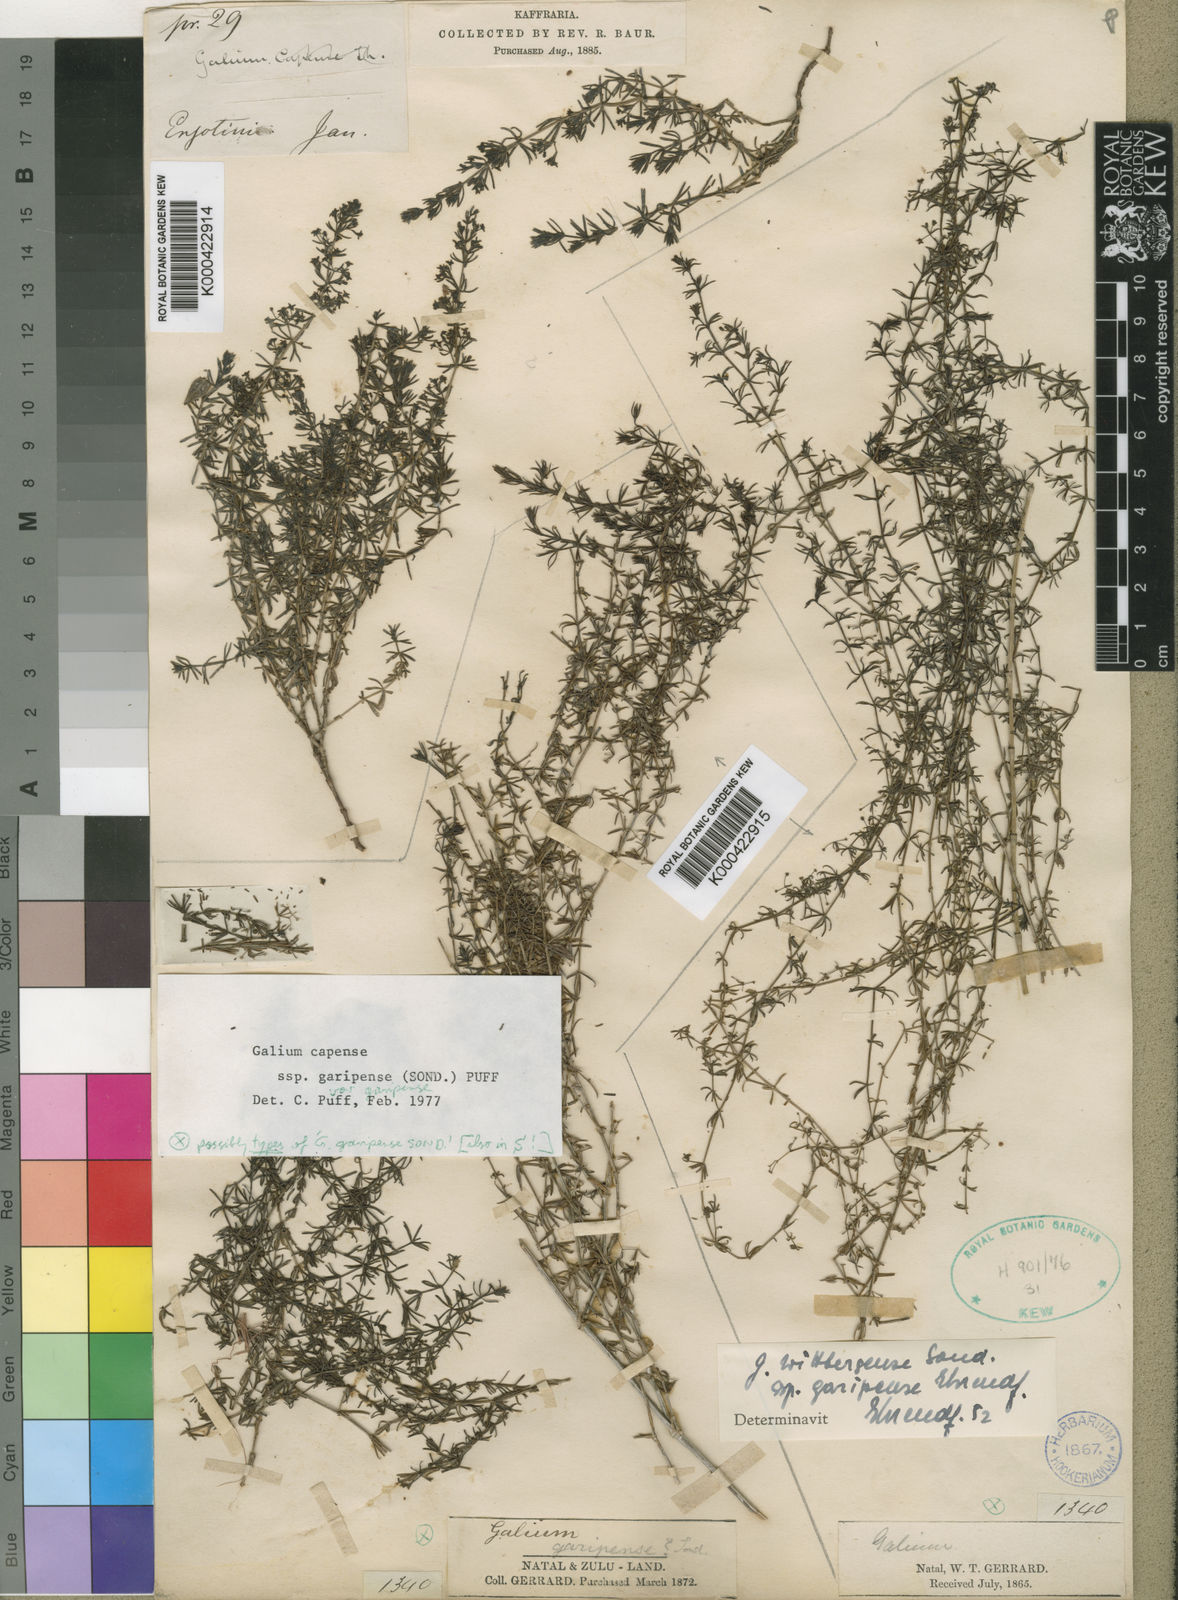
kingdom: Plantae
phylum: Tracheophyta
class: Magnoliopsida
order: Gentianales
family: Rubiaceae
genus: Galium
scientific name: Galium capense
